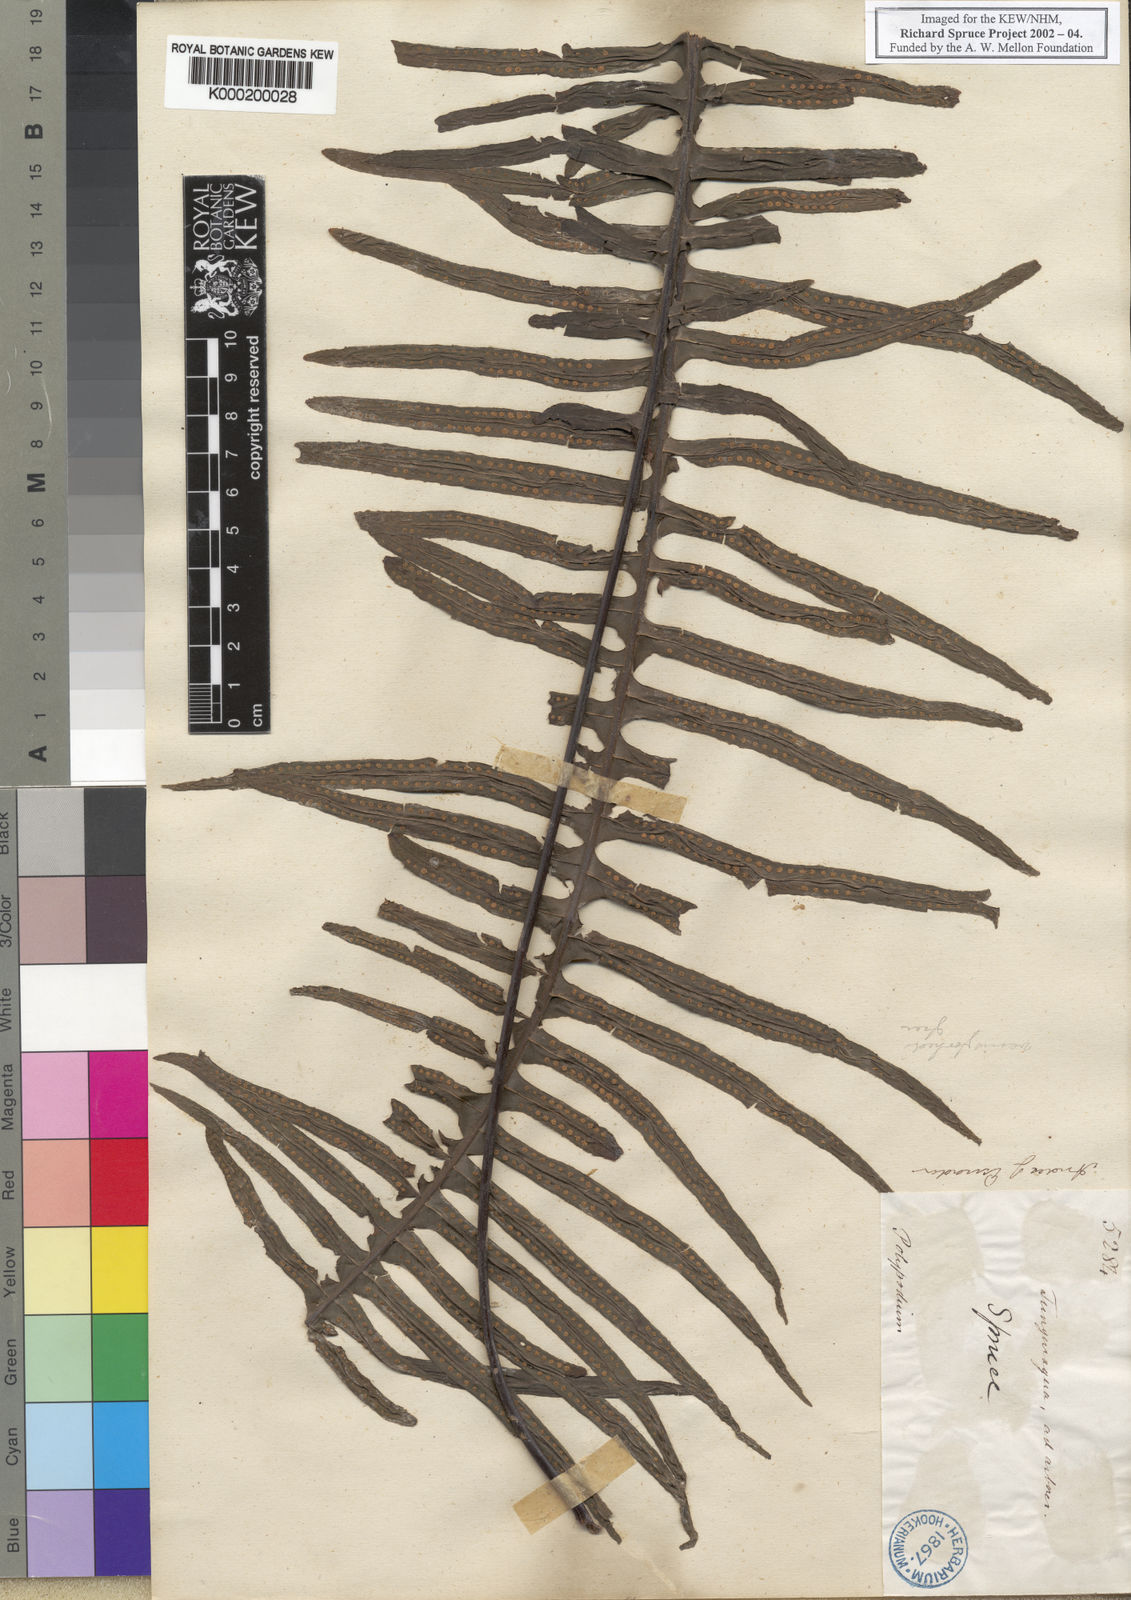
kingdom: Plantae
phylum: Tracheophyta
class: Polypodiopsida
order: Polypodiales
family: Polypodiaceae
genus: Pecluma
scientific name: Pecluma divaricata
